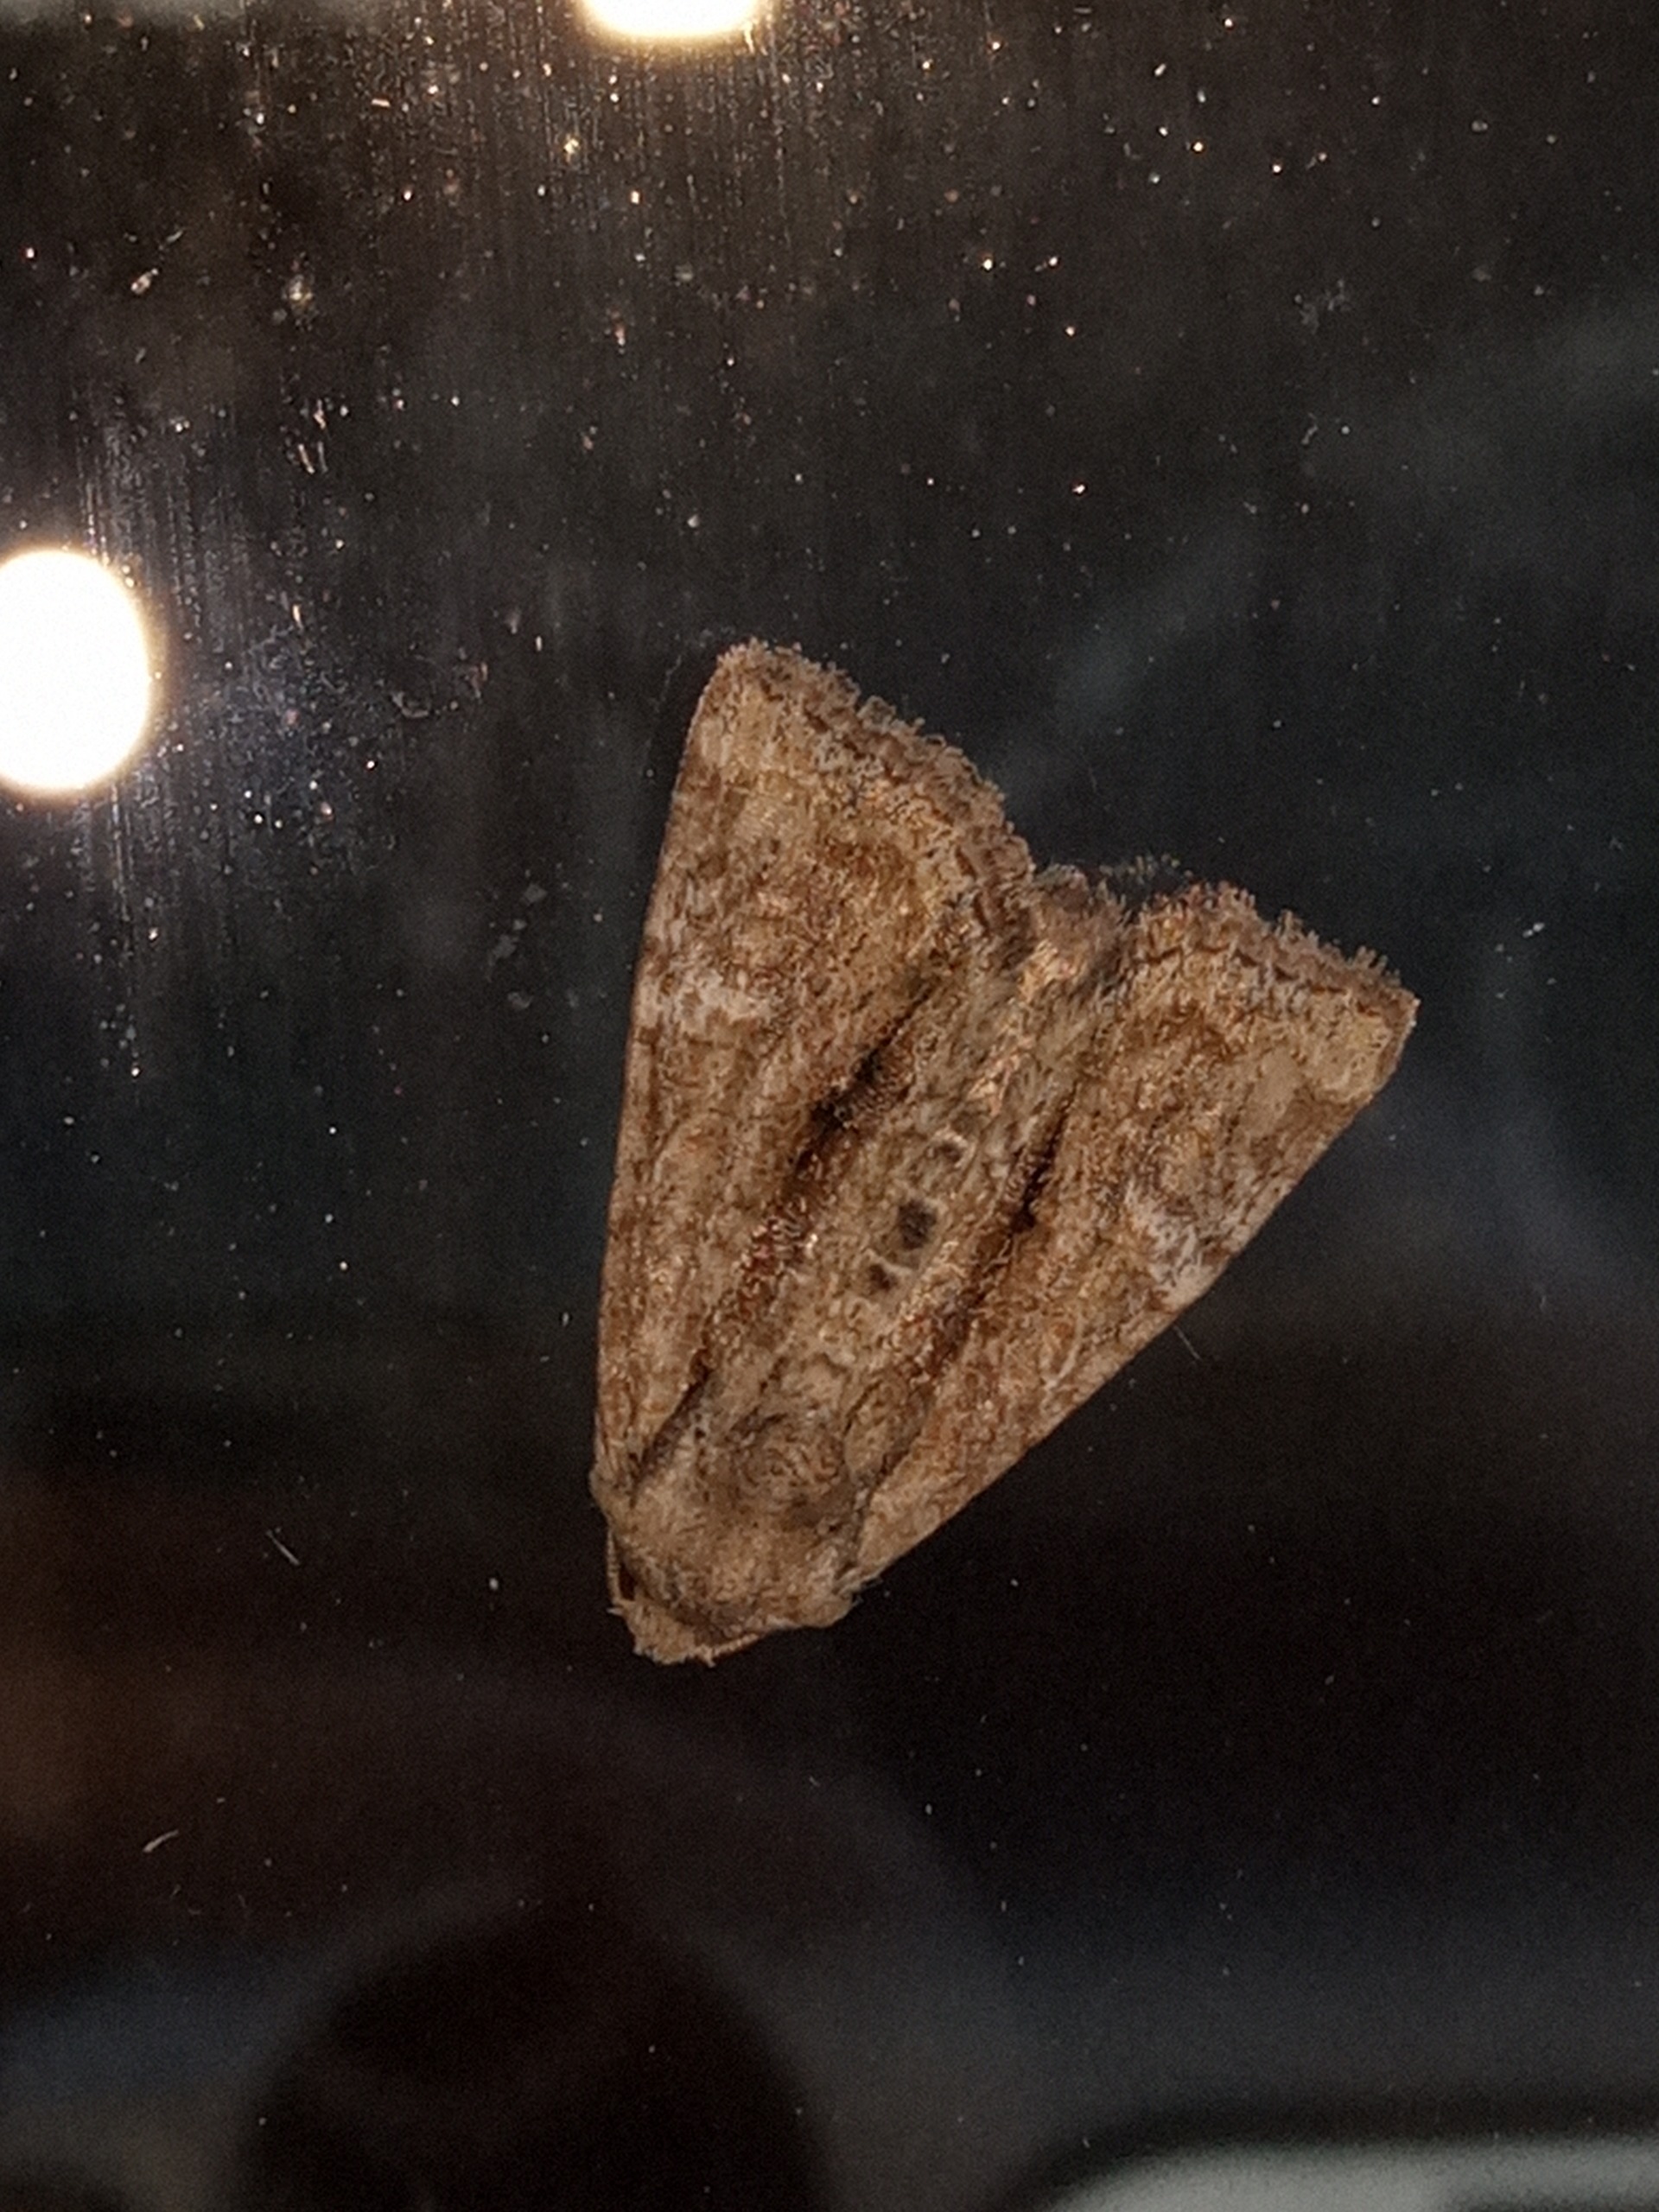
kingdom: Animalia
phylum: Arthropoda
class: Insecta
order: Lepidoptera
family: Noctuidae
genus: Mesoligia
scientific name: Mesoligia furuncula
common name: Lille tyv
